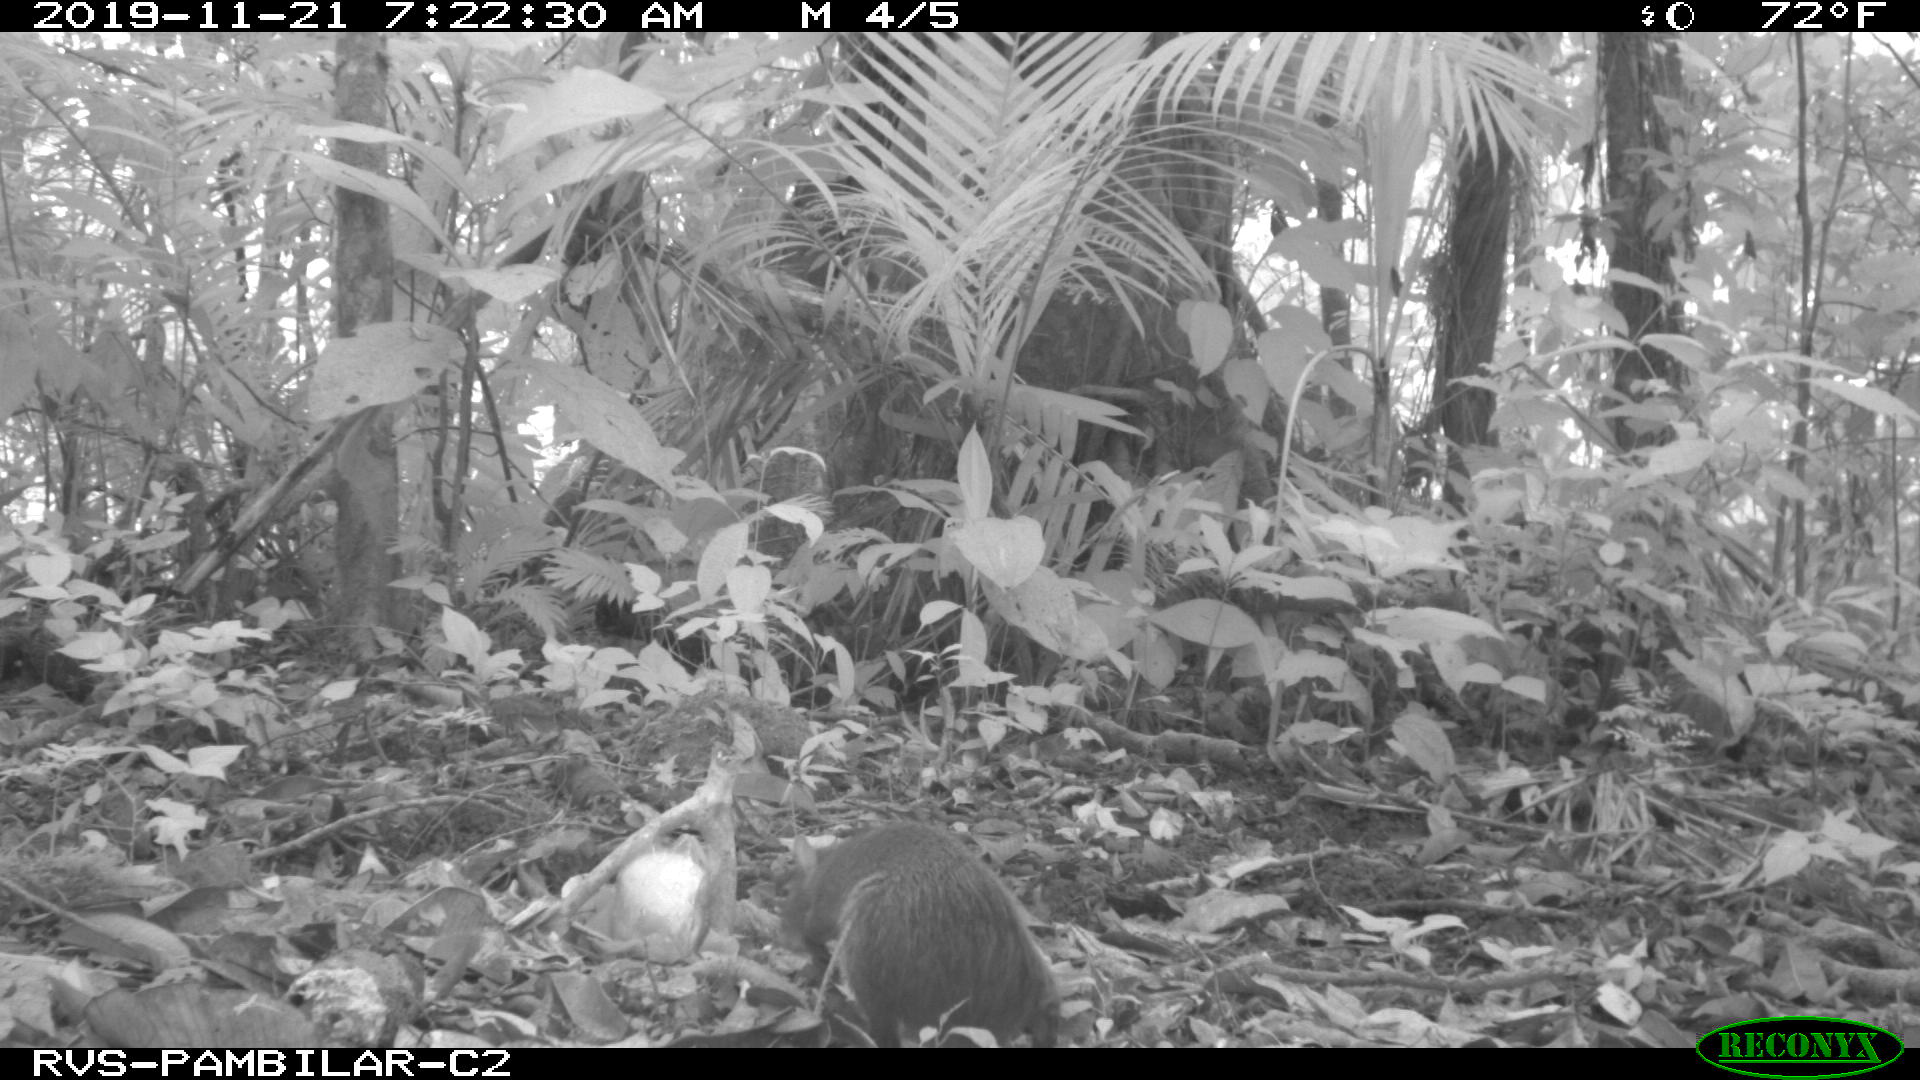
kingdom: Animalia
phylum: Chordata
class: Mammalia
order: Rodentia
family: Dasyproctidae
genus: Dasyprocta
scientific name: Dasyprocta punctata
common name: Central american agouti
